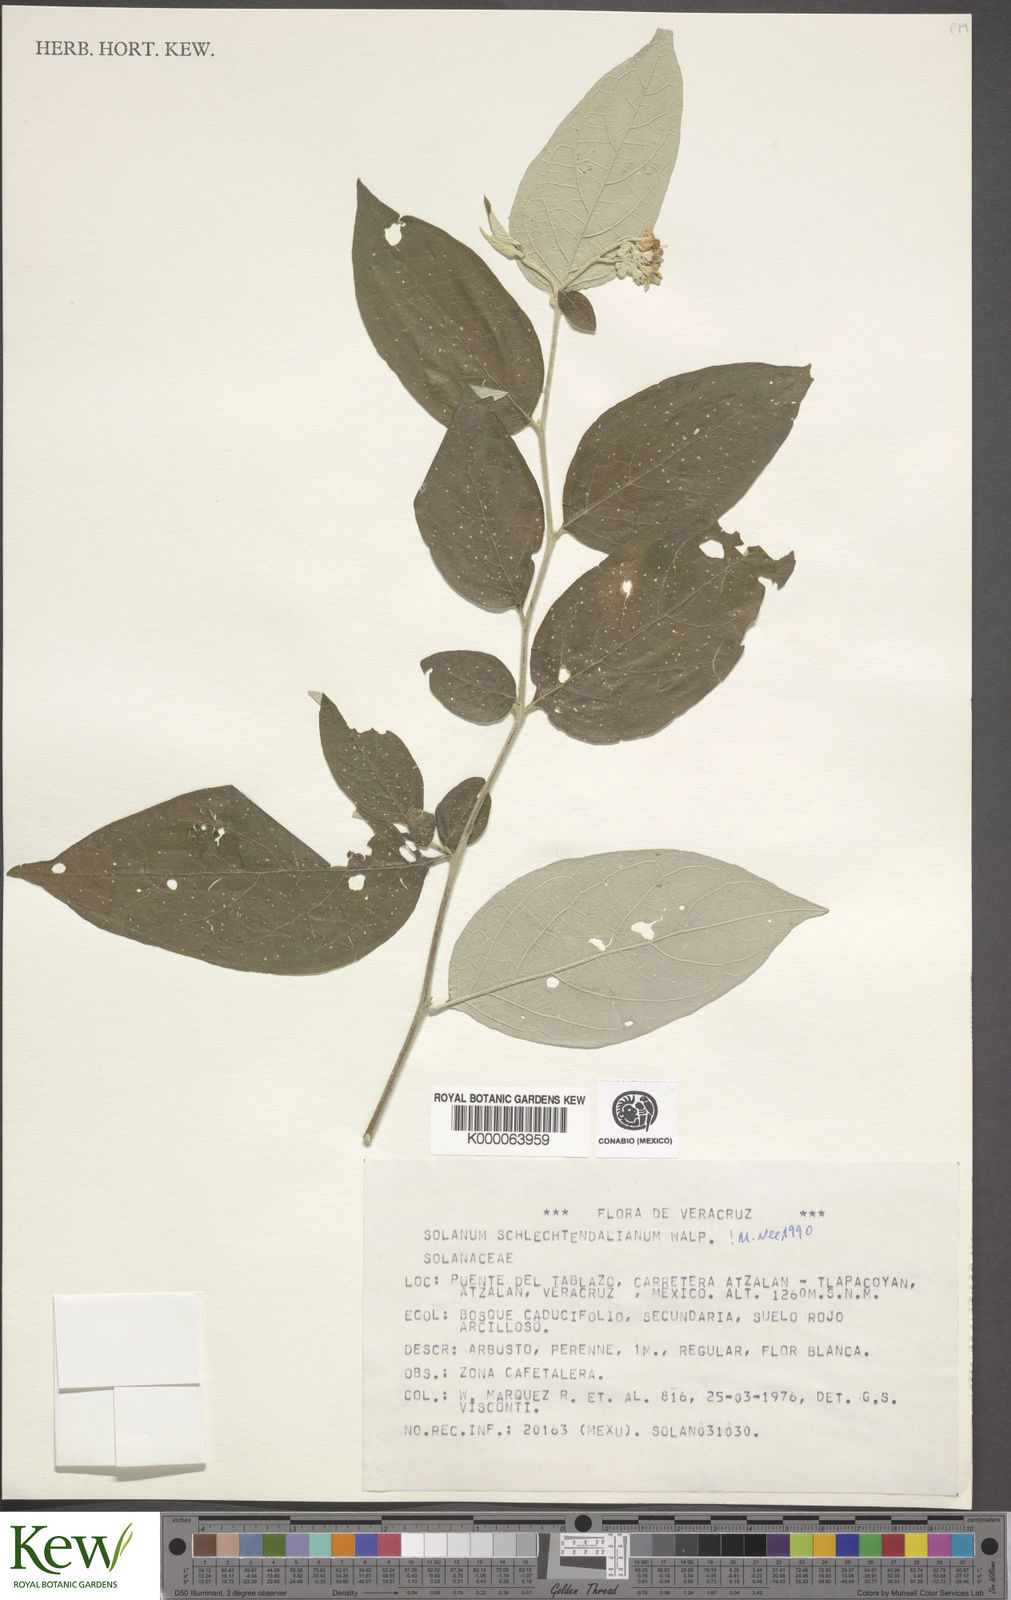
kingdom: Plantae
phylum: Tracheophyta
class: Magnoliopsida
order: Solanales
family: Solanaceae
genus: Solanum
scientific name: Solanum schlechtendalianum
